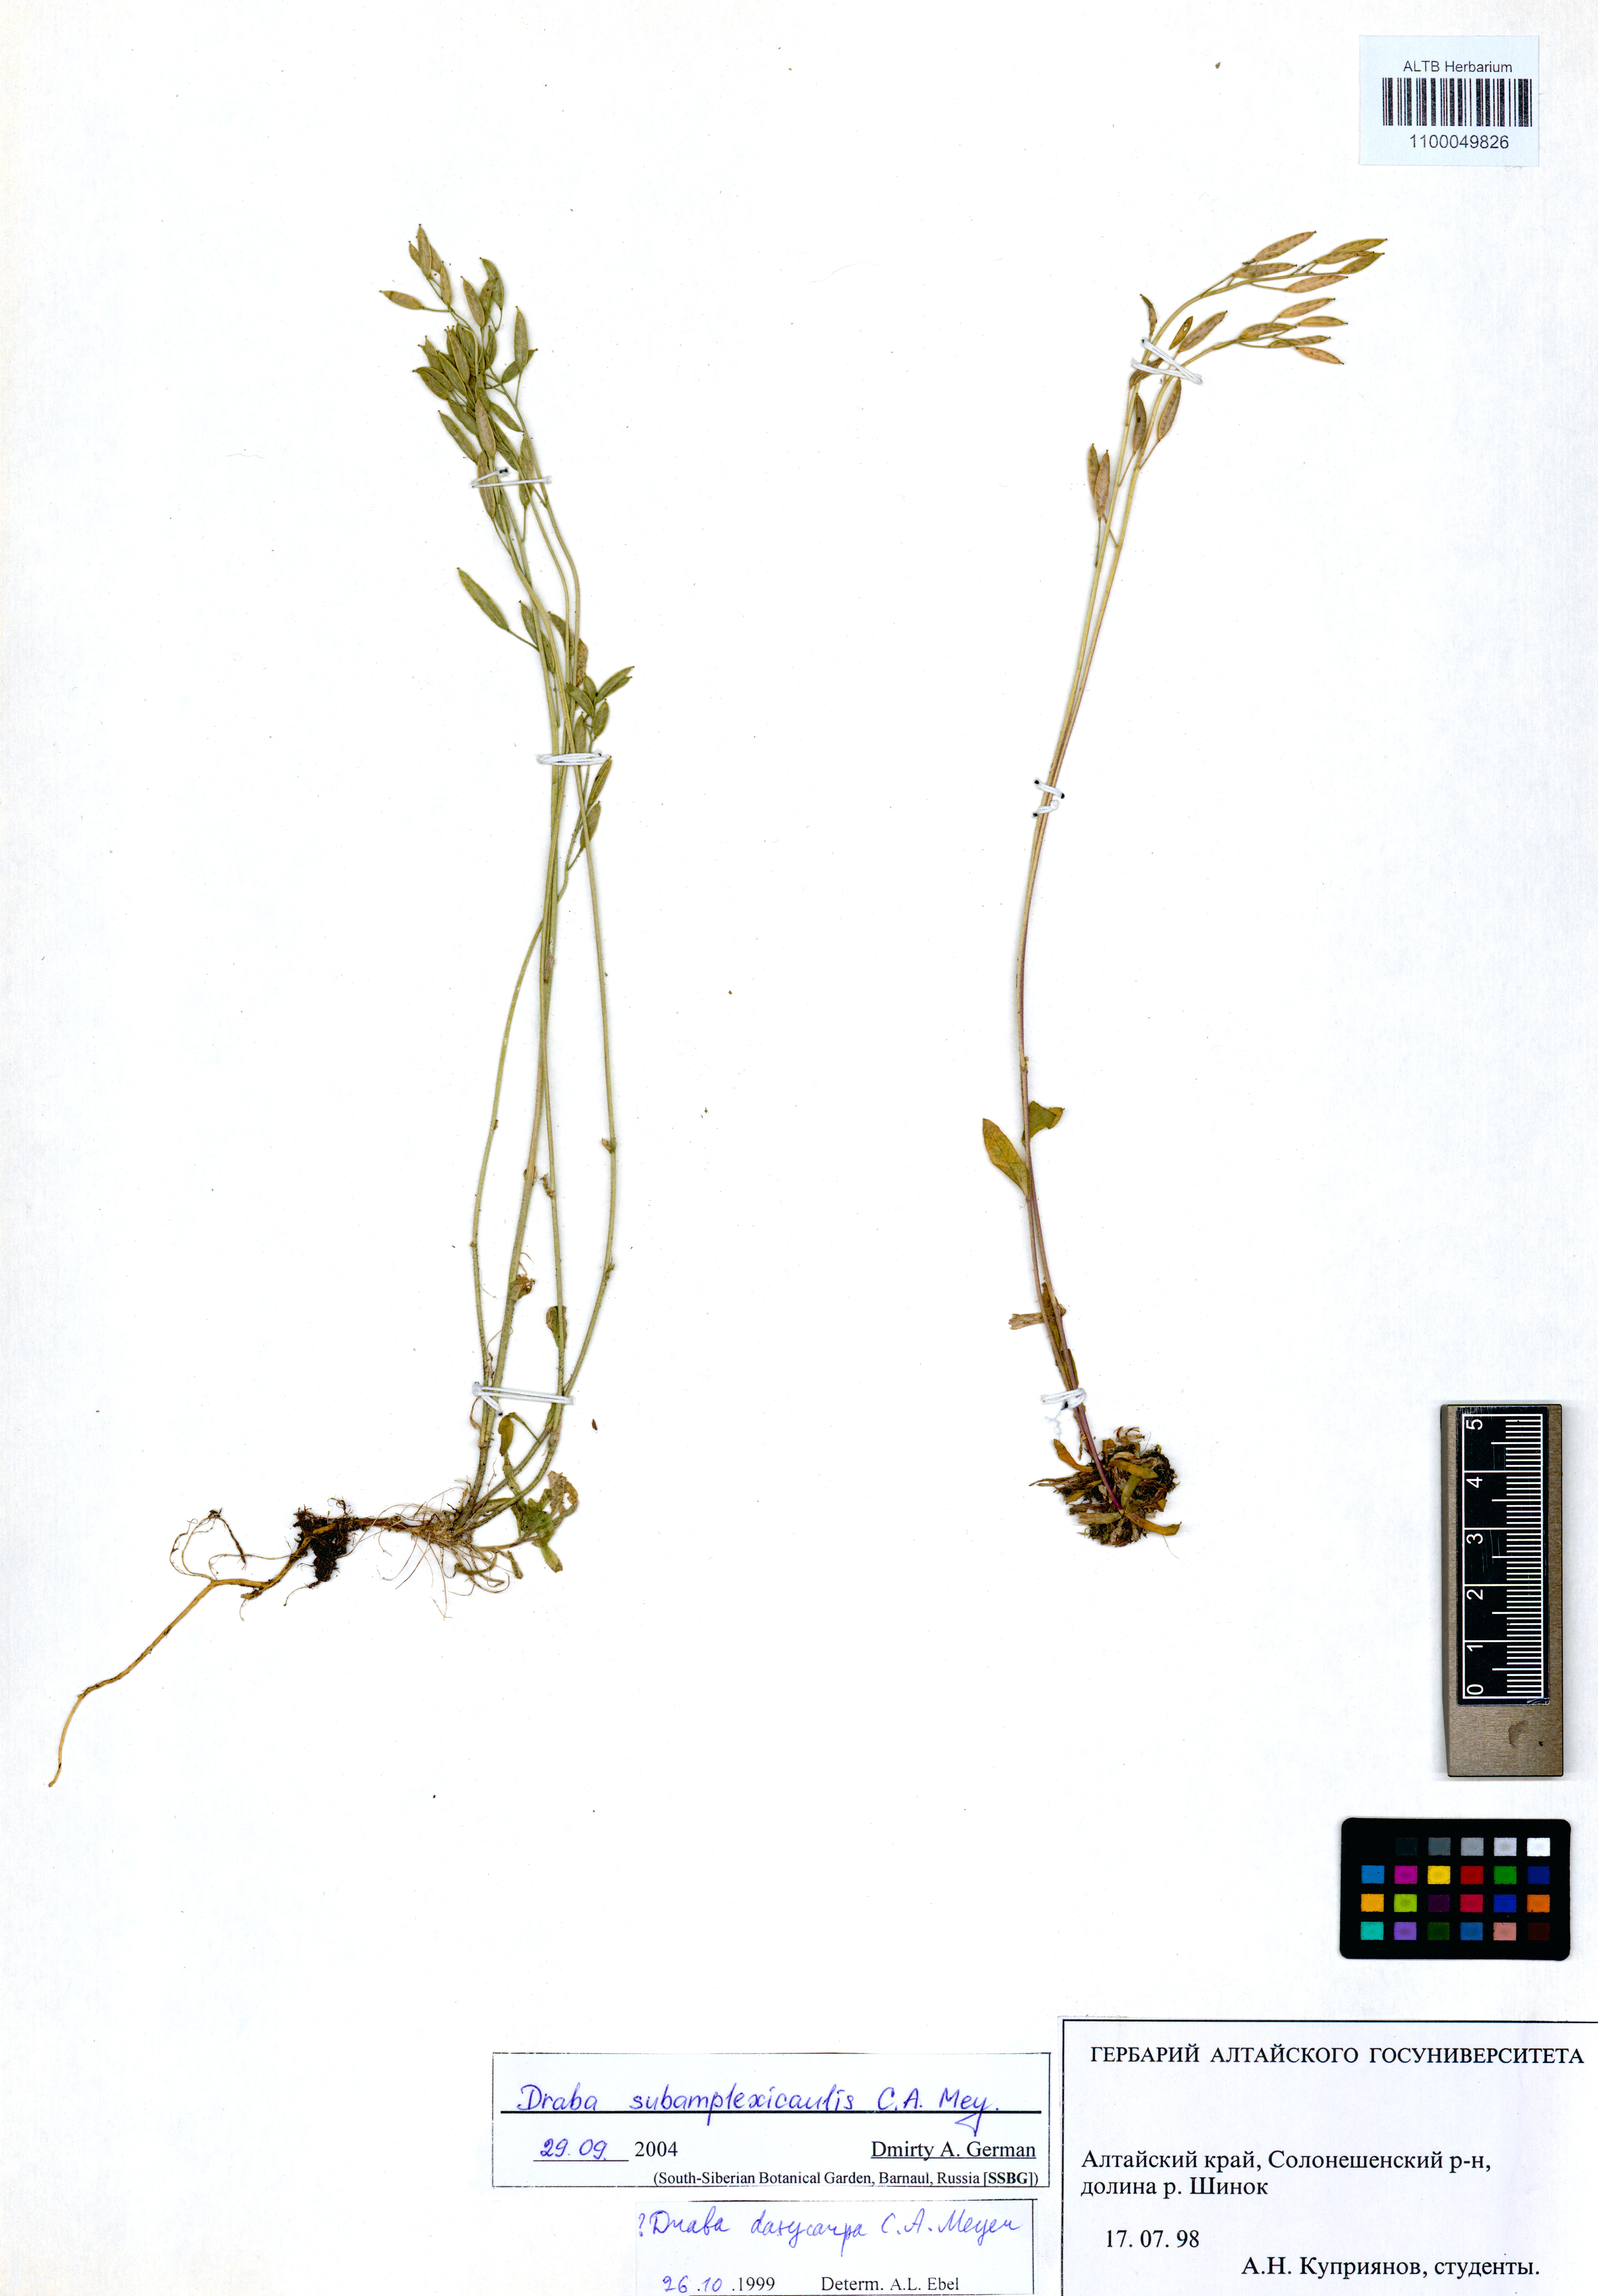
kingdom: Plantae
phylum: Tracheophyta
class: Magnoliopsida
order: Brassicales
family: Brassicaceae
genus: Draba
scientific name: Draba subamplexicaulis
